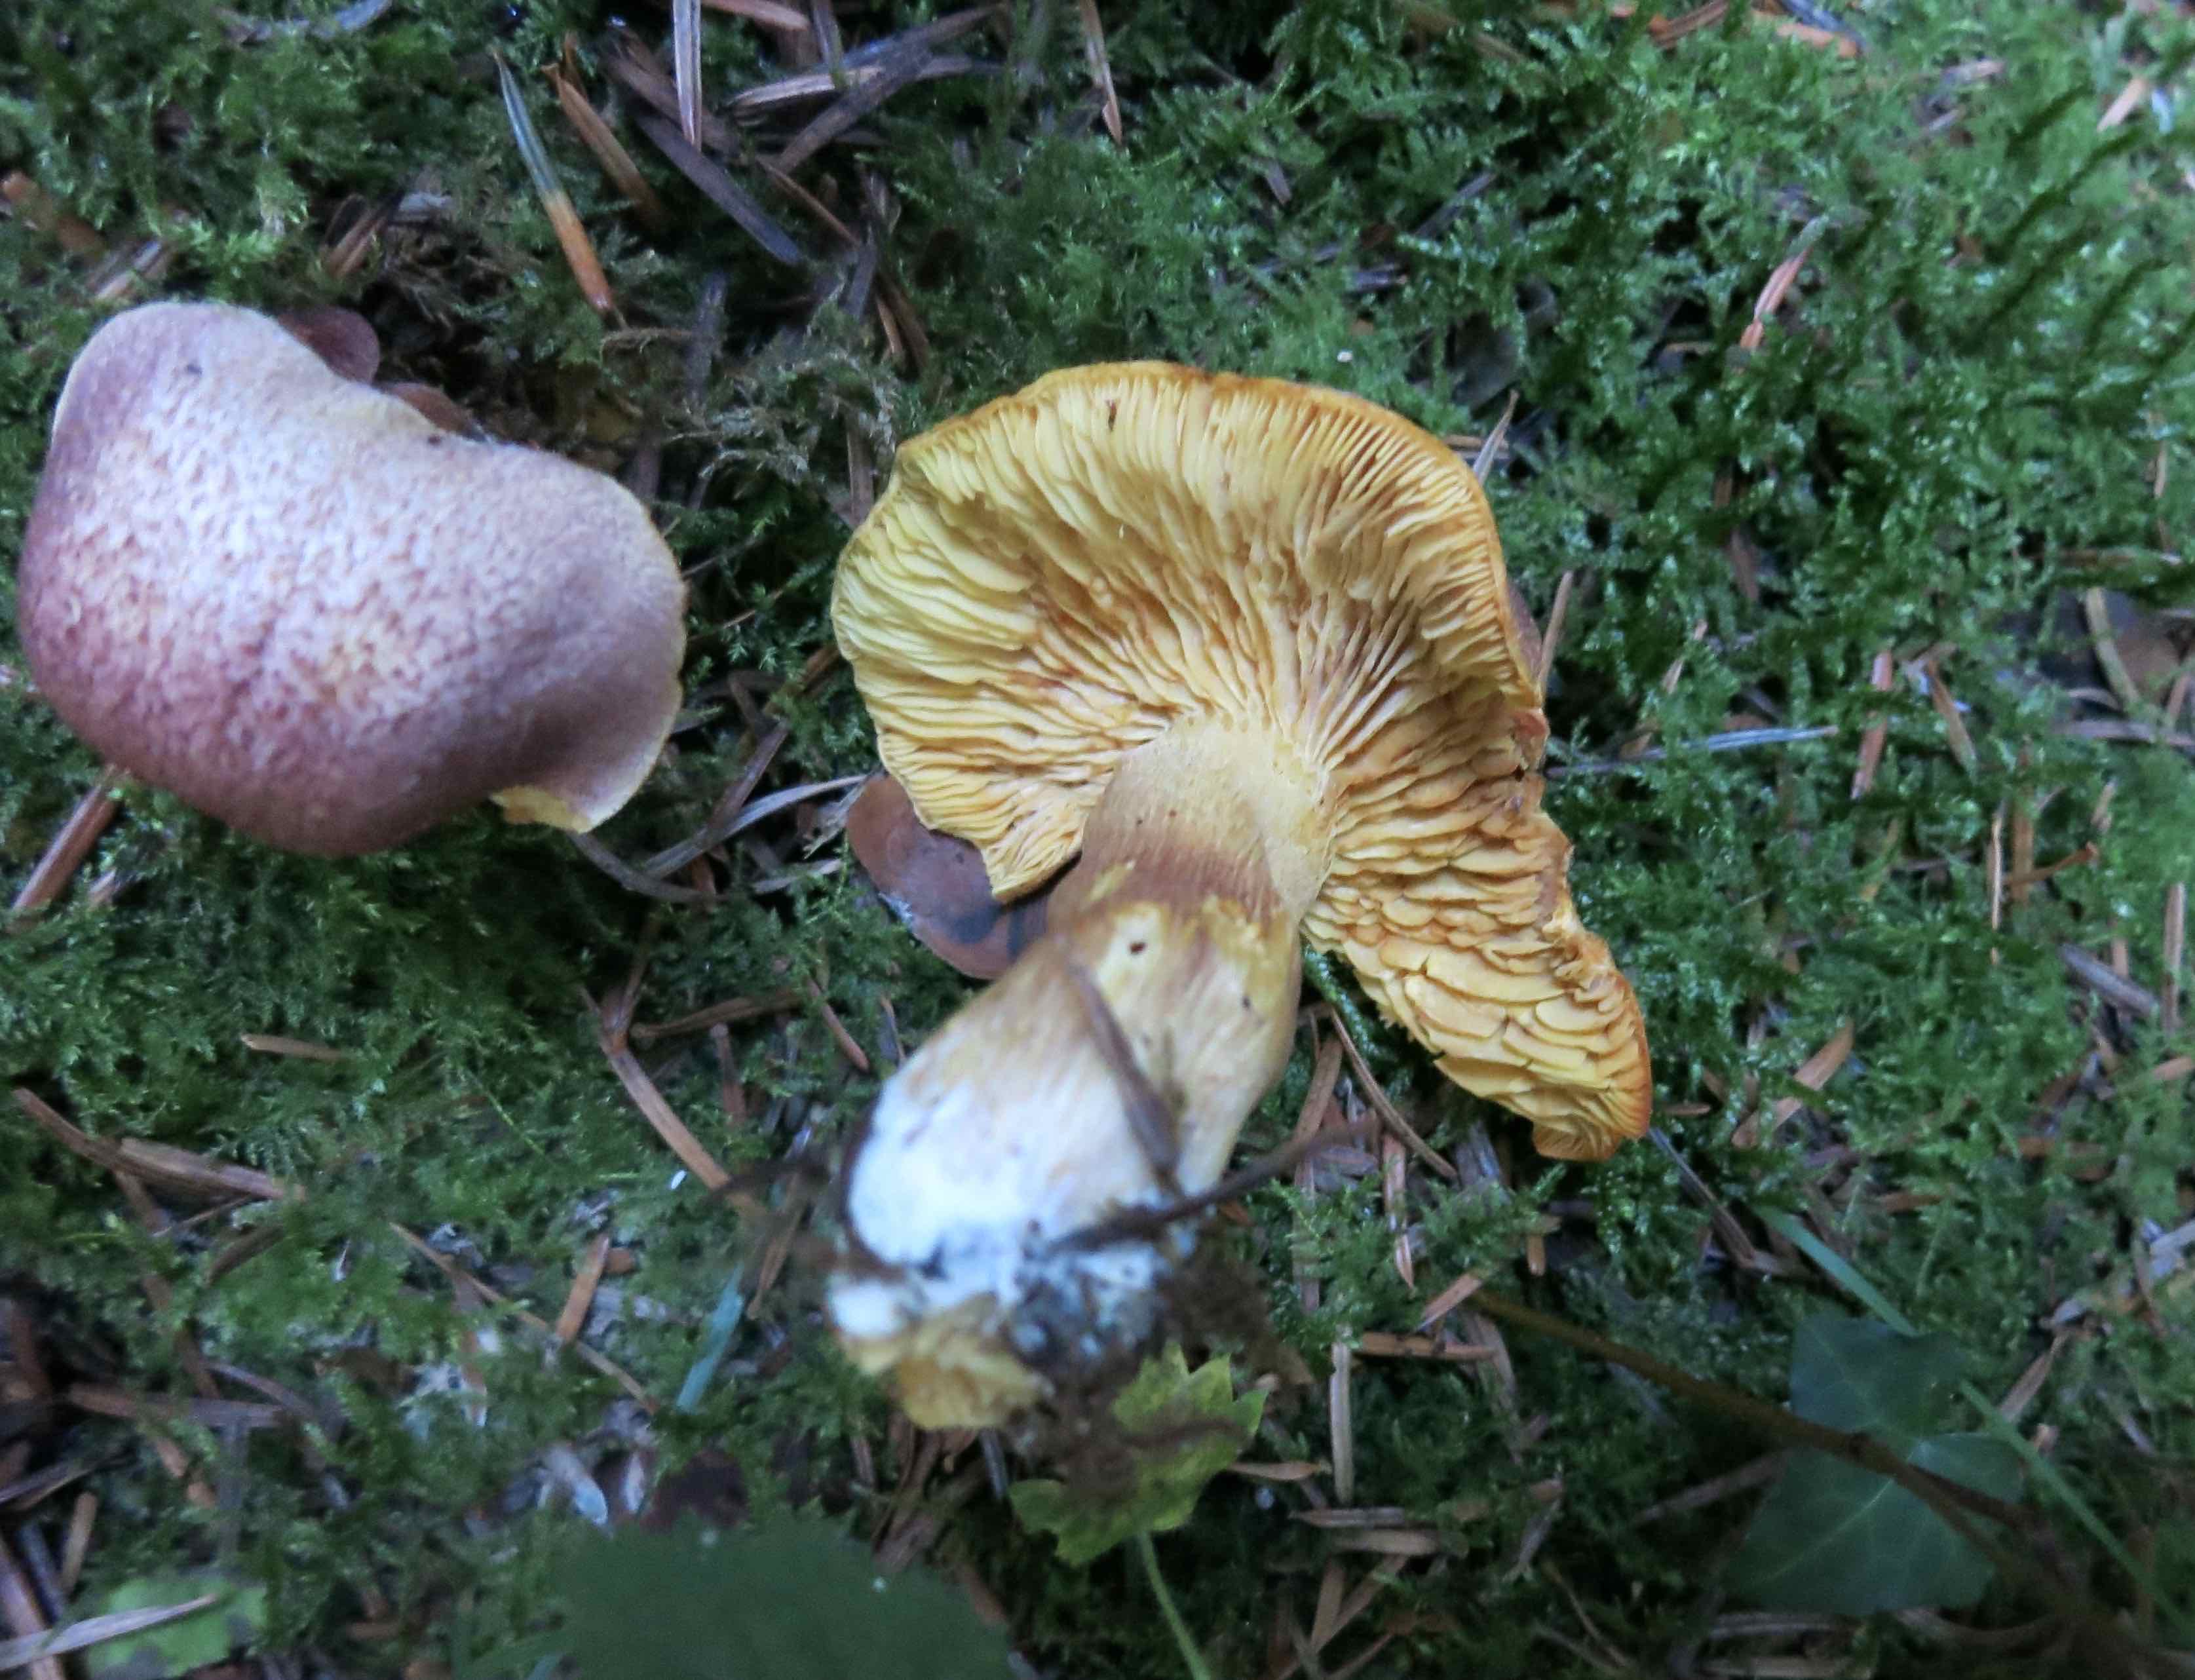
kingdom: Fungi
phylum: Basidiomycota
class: Agaricomycetes
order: Agaricales
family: Tricholomataceae
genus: Tricholomopsis
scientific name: Tricholomopsis rutilans
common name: purpur-væbnerhat
